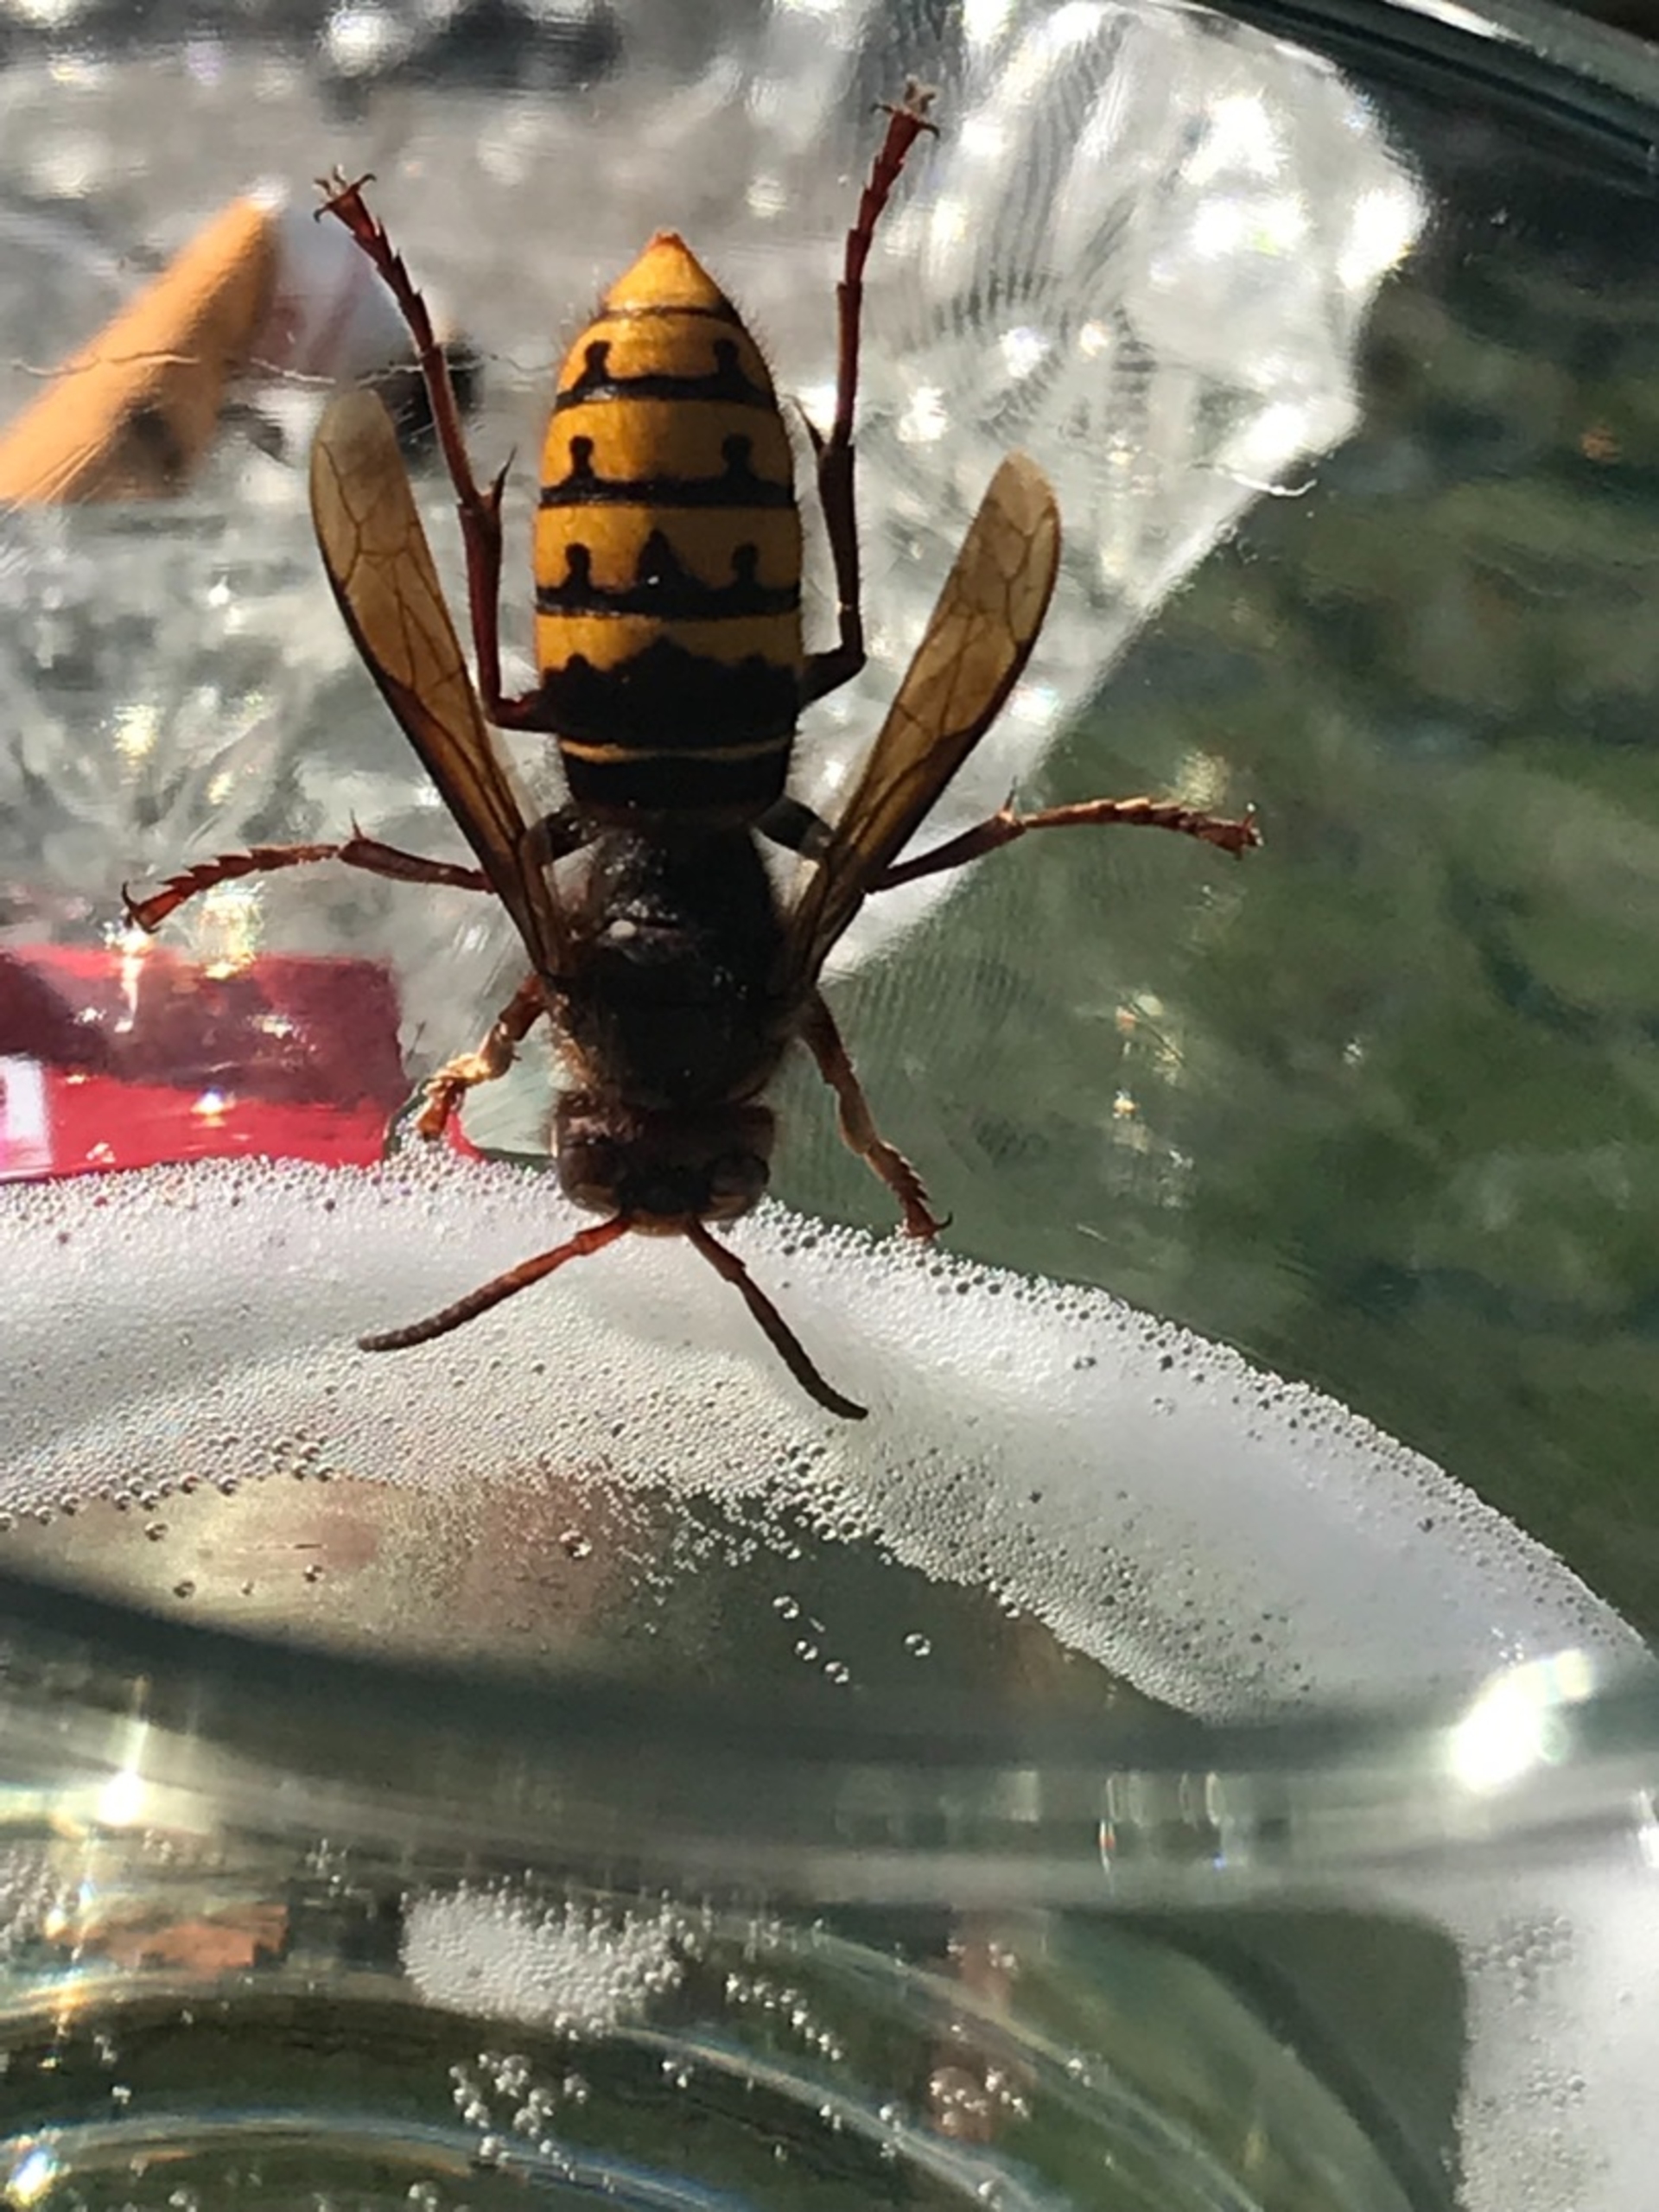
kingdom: Animalia
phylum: Arthropoda
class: Insecta
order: Hymenoptera
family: Vespidae
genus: Vespa
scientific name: Vespa crabro
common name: Stor gedehams
